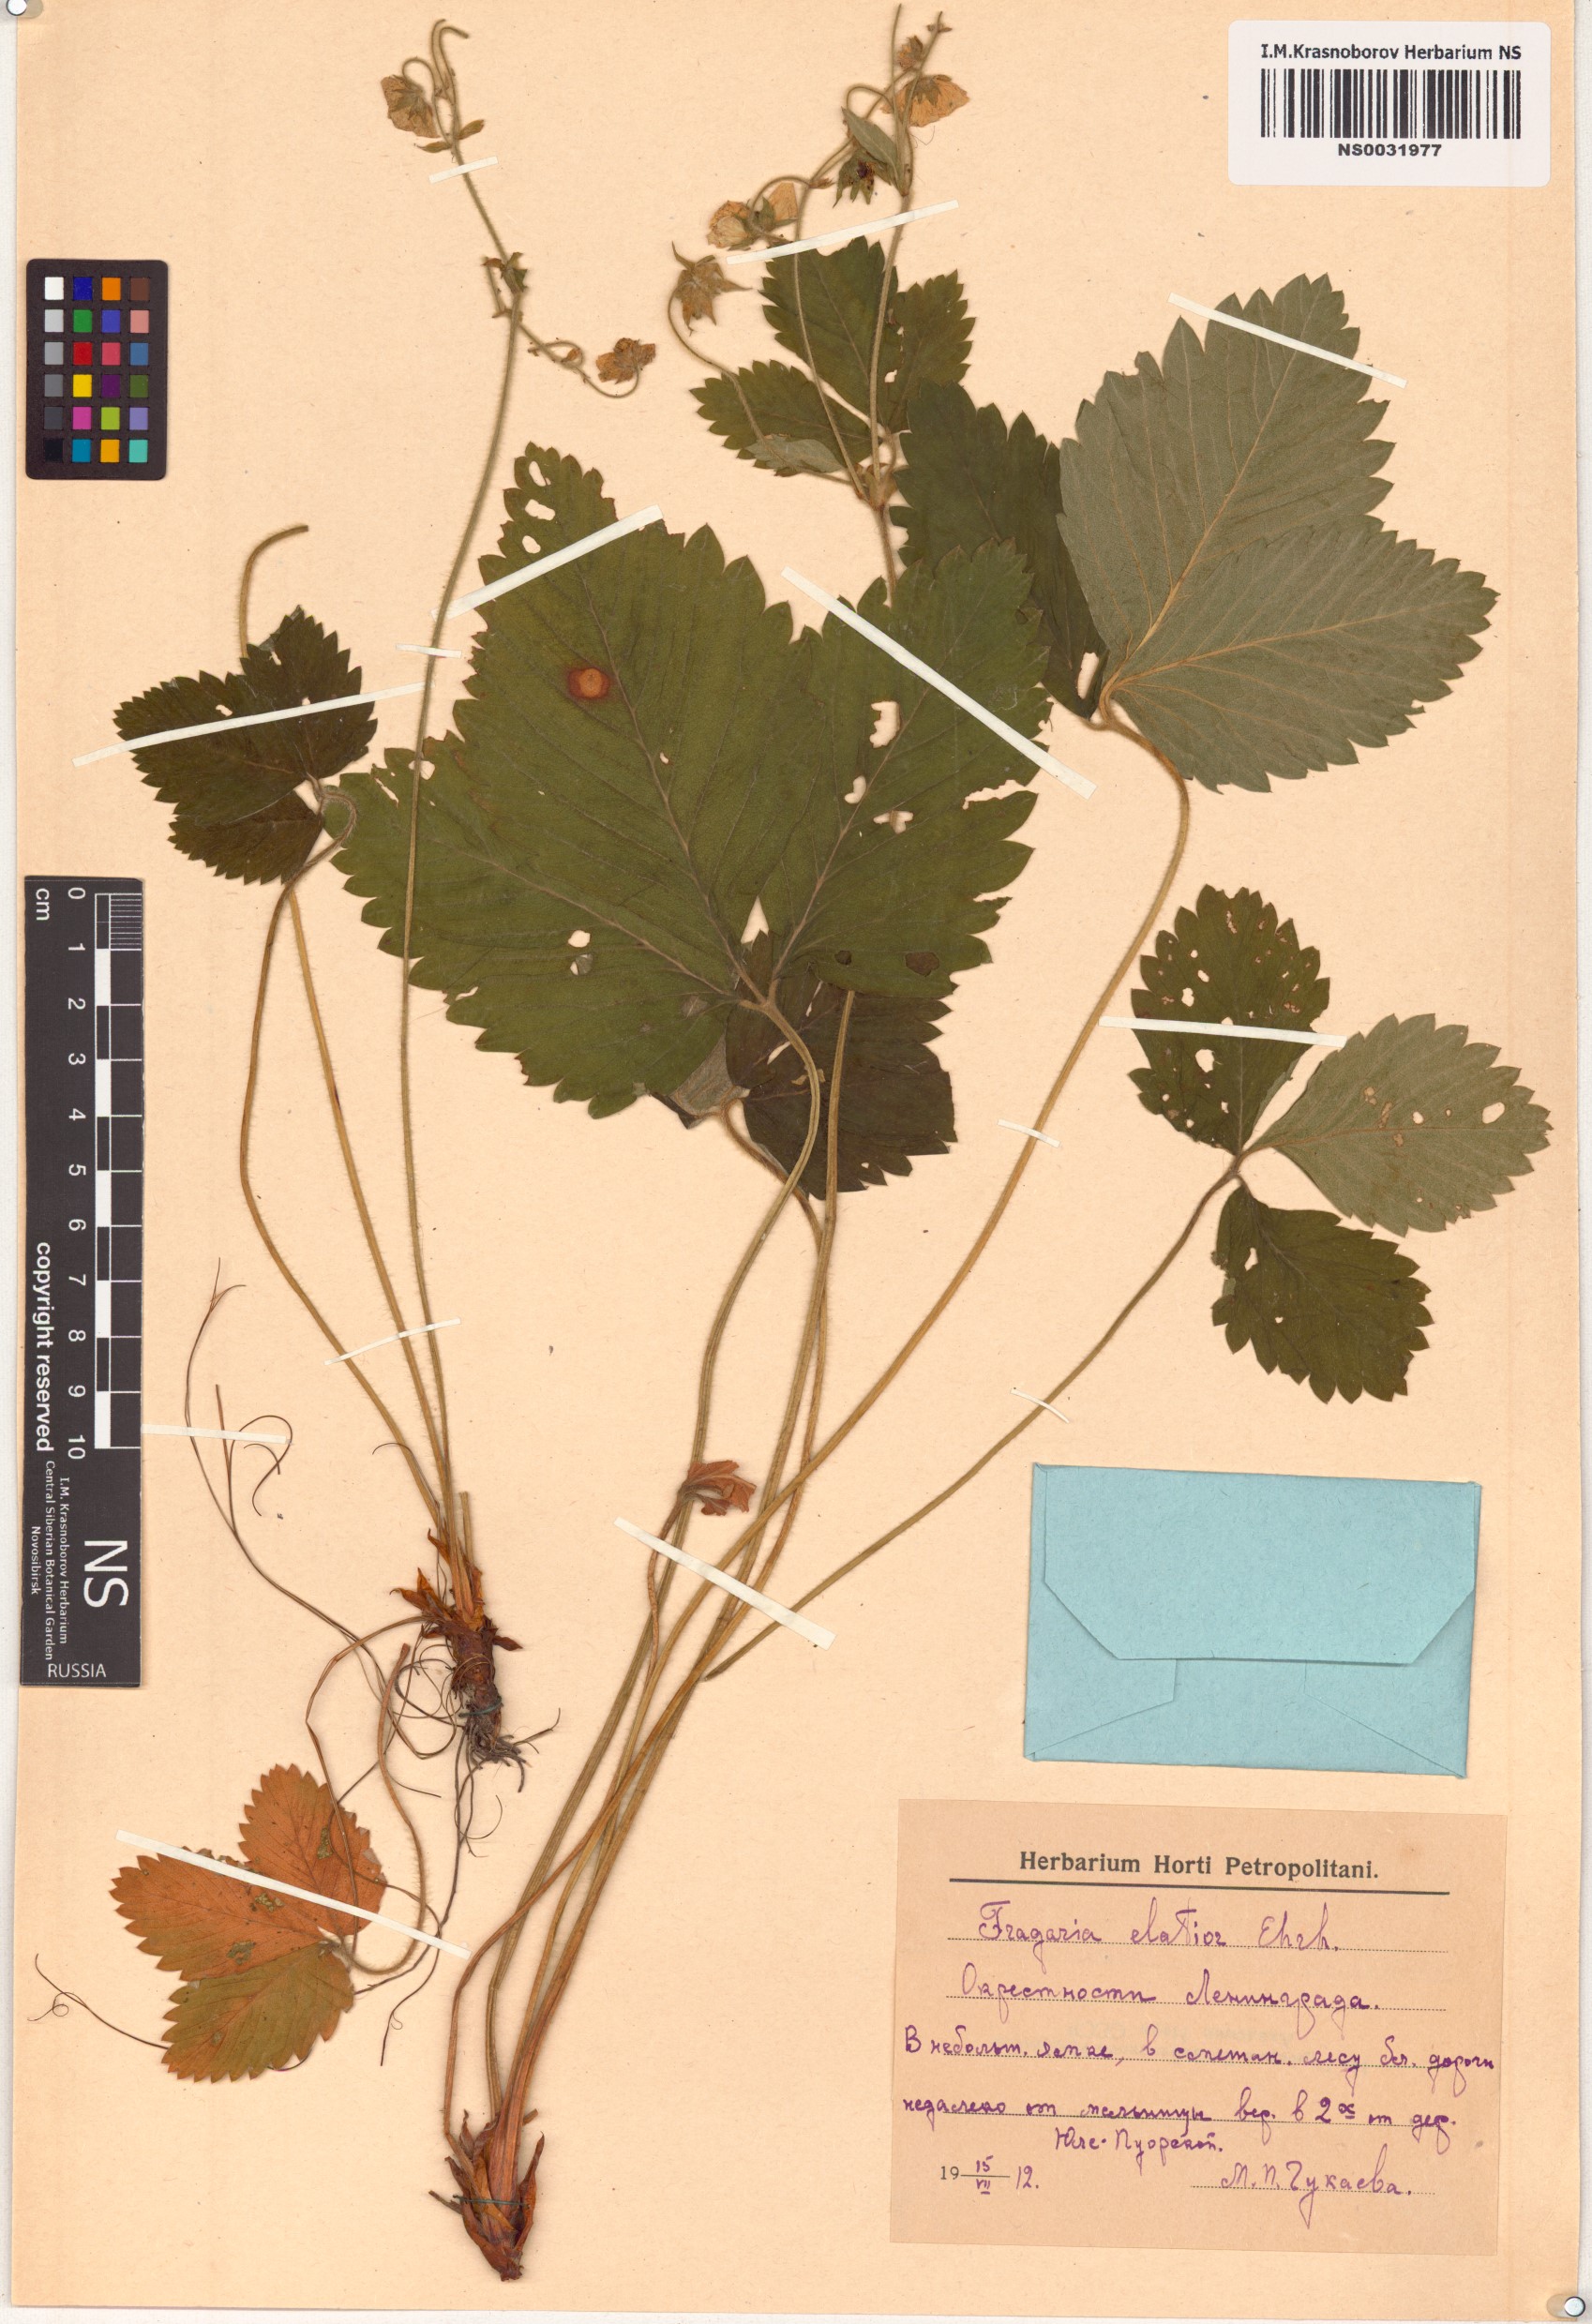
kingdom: Plantae
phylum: Tracheophyta
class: Magnoliopsida
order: Rosales
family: Rosaceae
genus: Fragaria
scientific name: Fragaria
